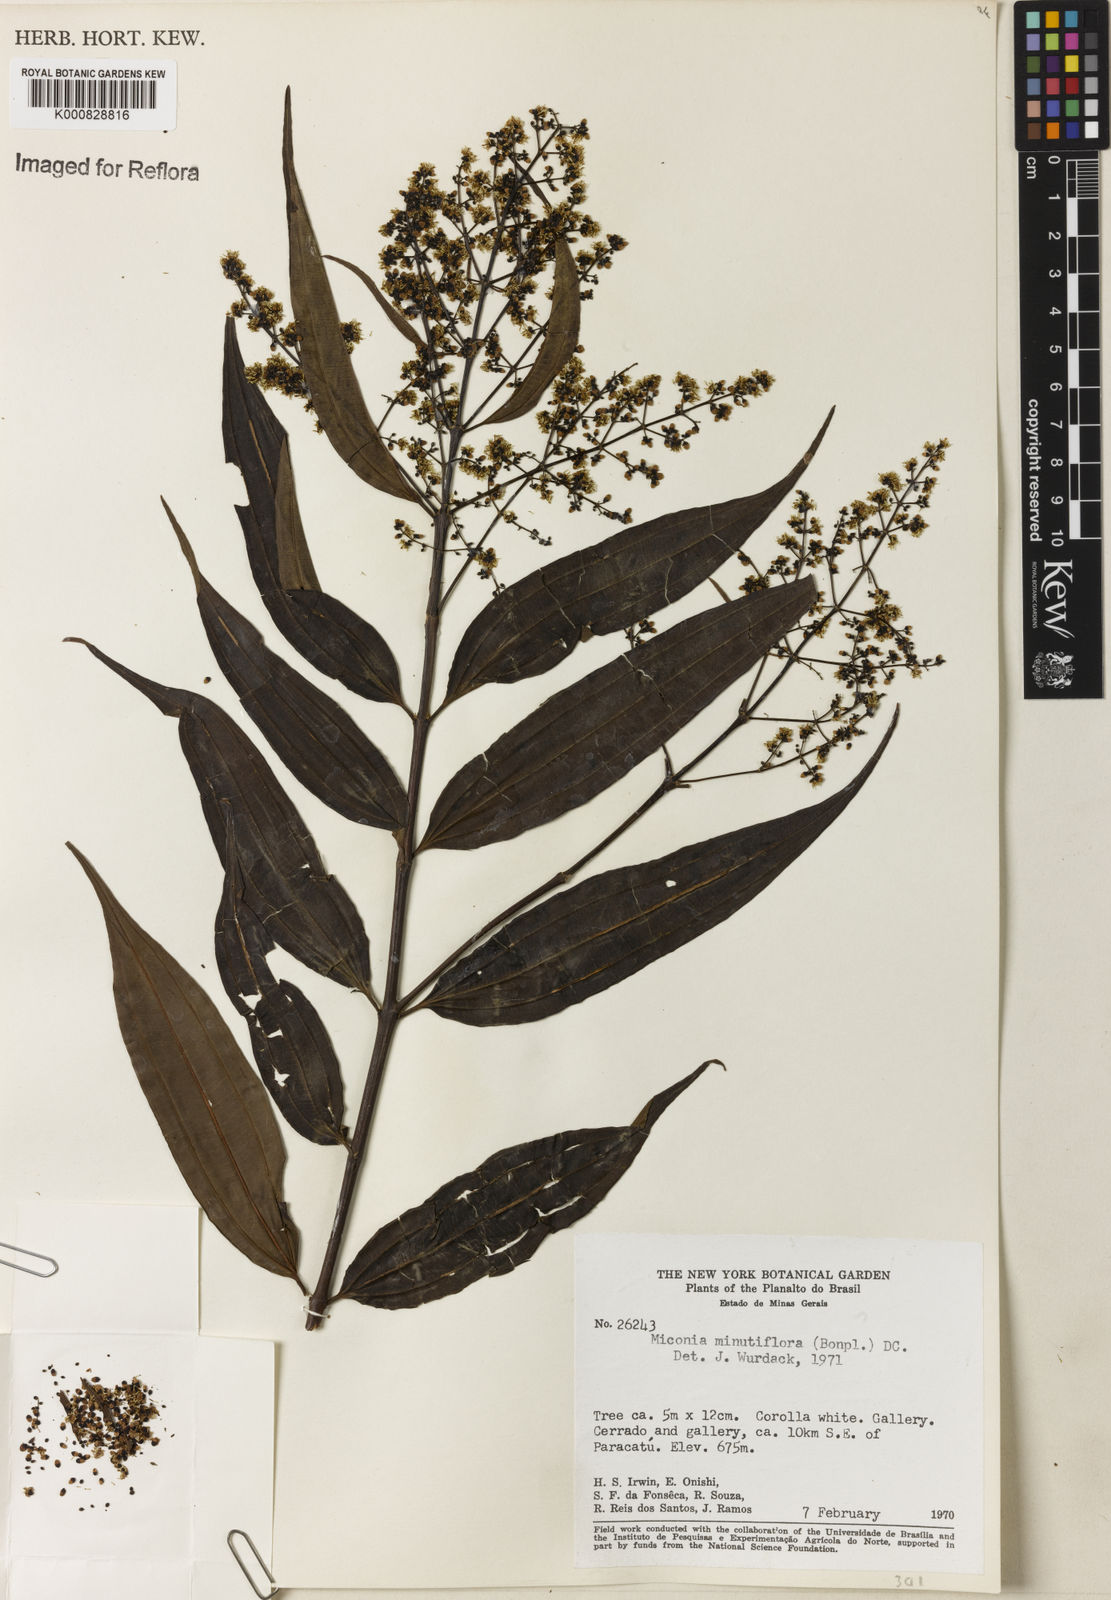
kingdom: Plantae
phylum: Tracheophyta
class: Magnoliopsida
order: Myrtales
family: Melastomataceae
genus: Miconia
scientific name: Miconia minutiflora
